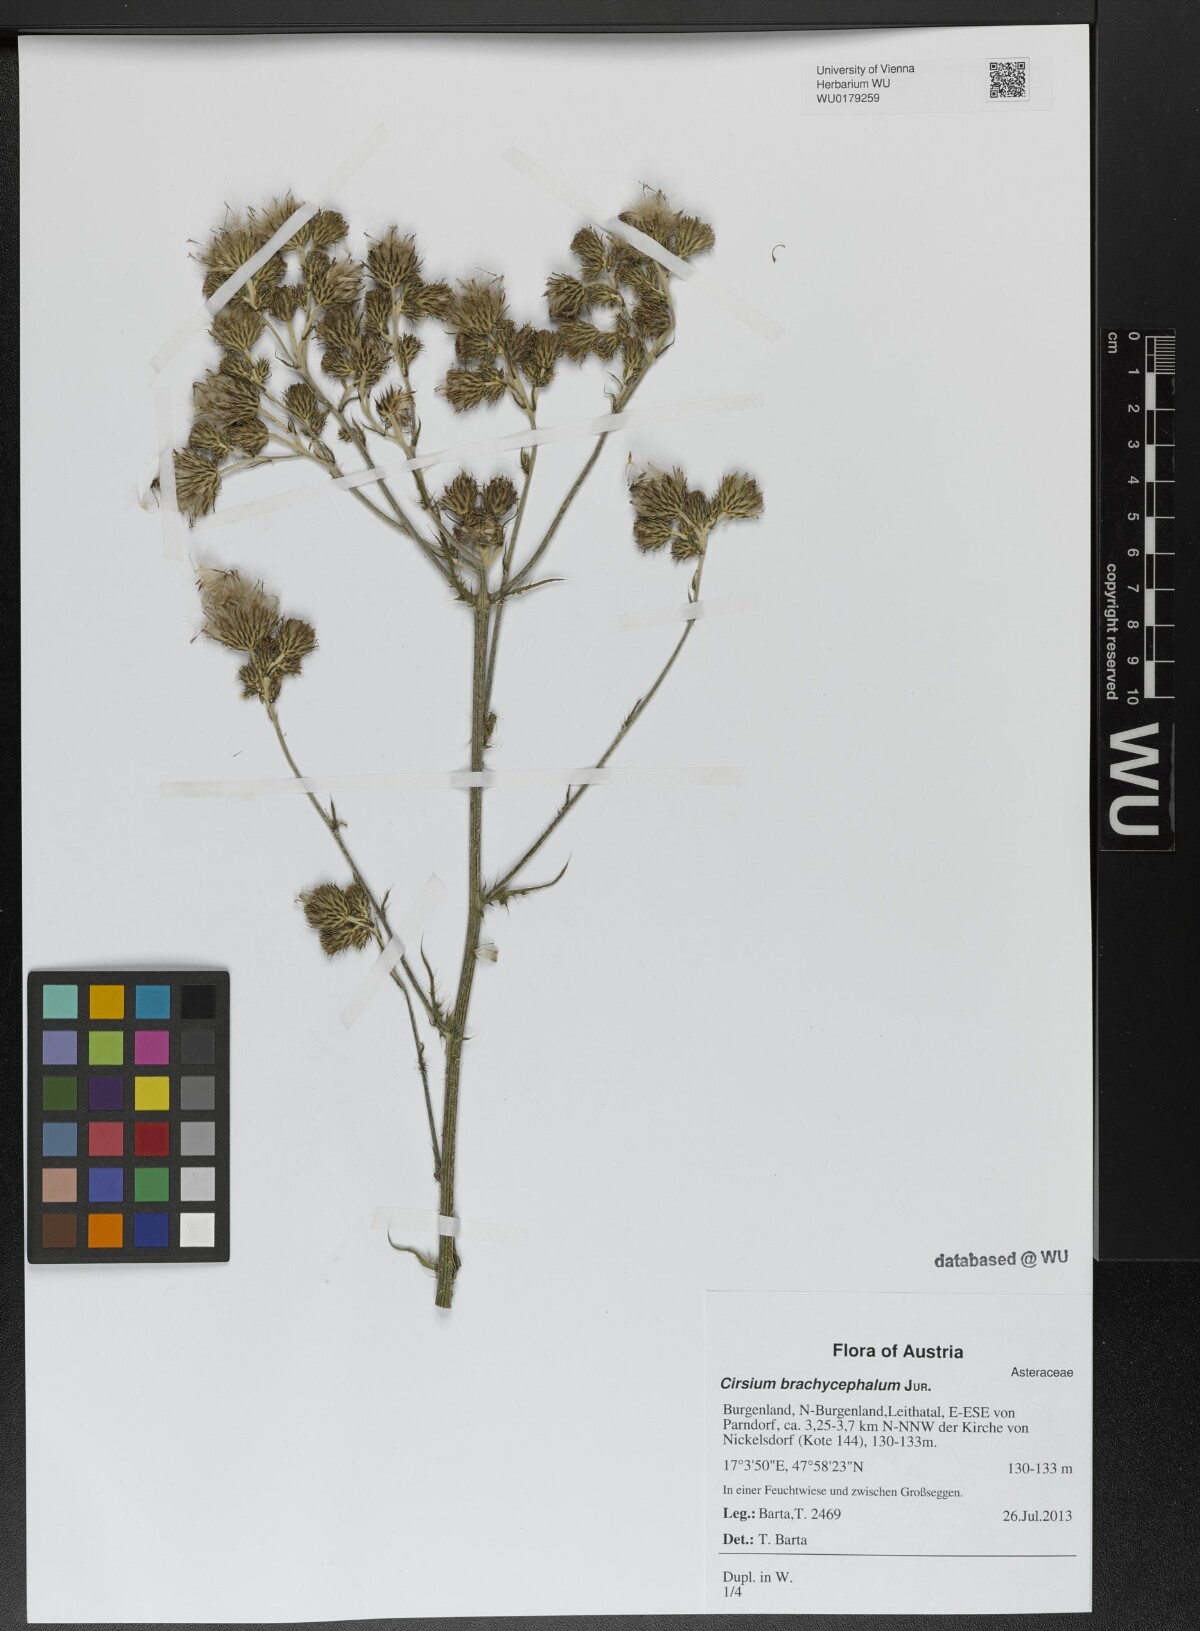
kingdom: Plantae
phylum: Tracheophyta
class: Magnoliopsida
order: Asterales
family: Asteraceae
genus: Cirsium
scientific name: Cirsium brachycephalum
